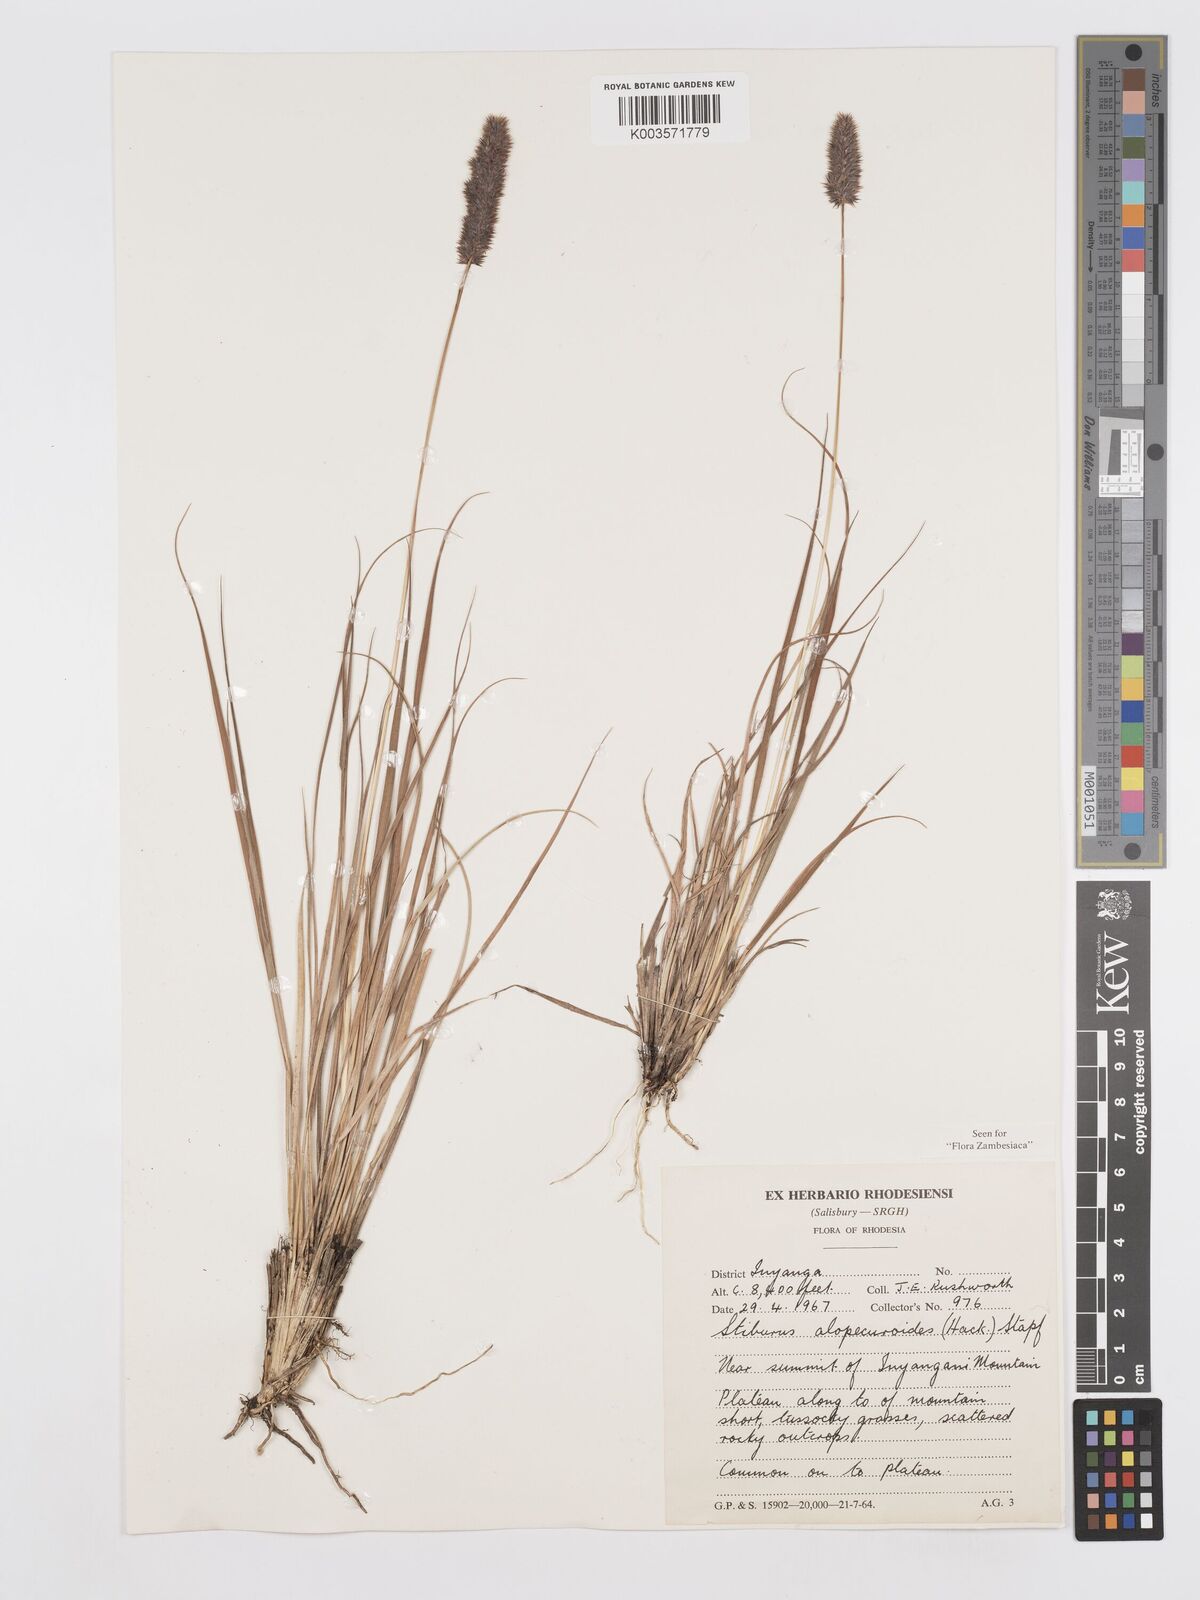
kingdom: Plantae
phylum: Tracheophyta
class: Liliopsida
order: Poales
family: Poaceae
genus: Stiburus
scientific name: Stiburus alopecuroides
